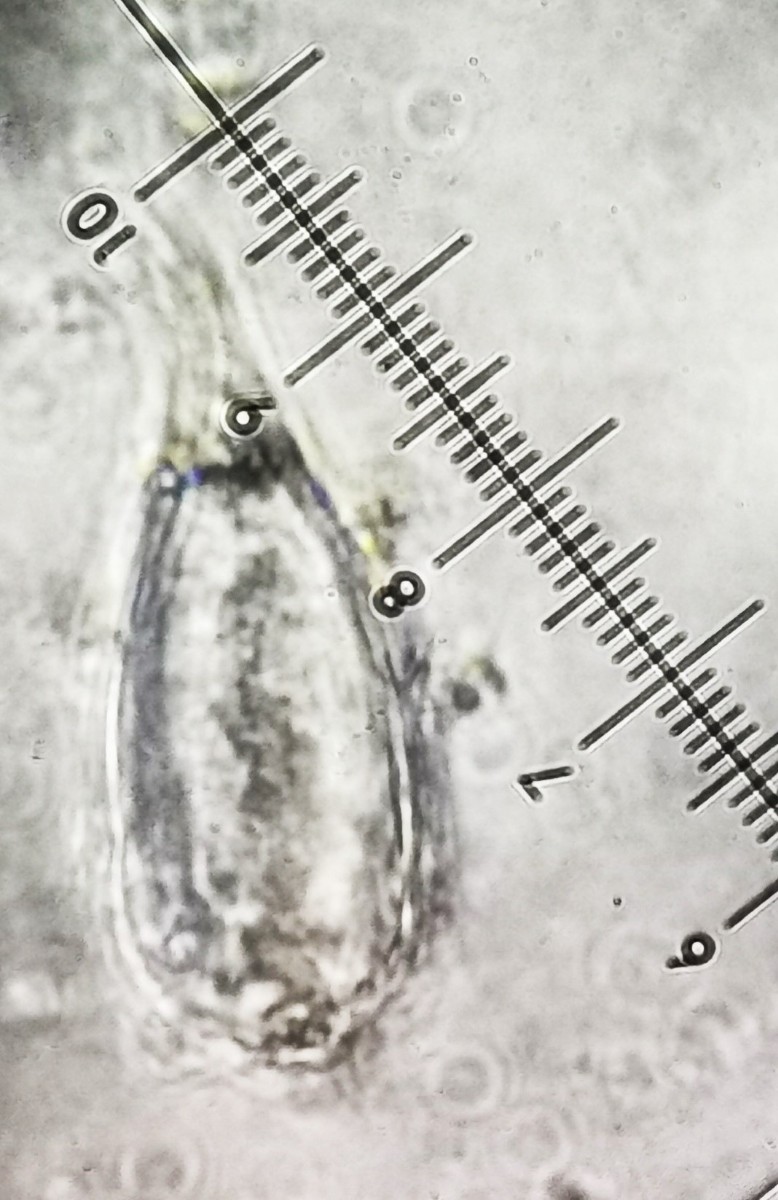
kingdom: Fungi
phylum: Basidiomycota
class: Agaricomycetes
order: Agaricales
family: Physalacriaceae
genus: Strobilurus
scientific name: Strobilurus stephanocystis
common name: fyrre-koglehat
